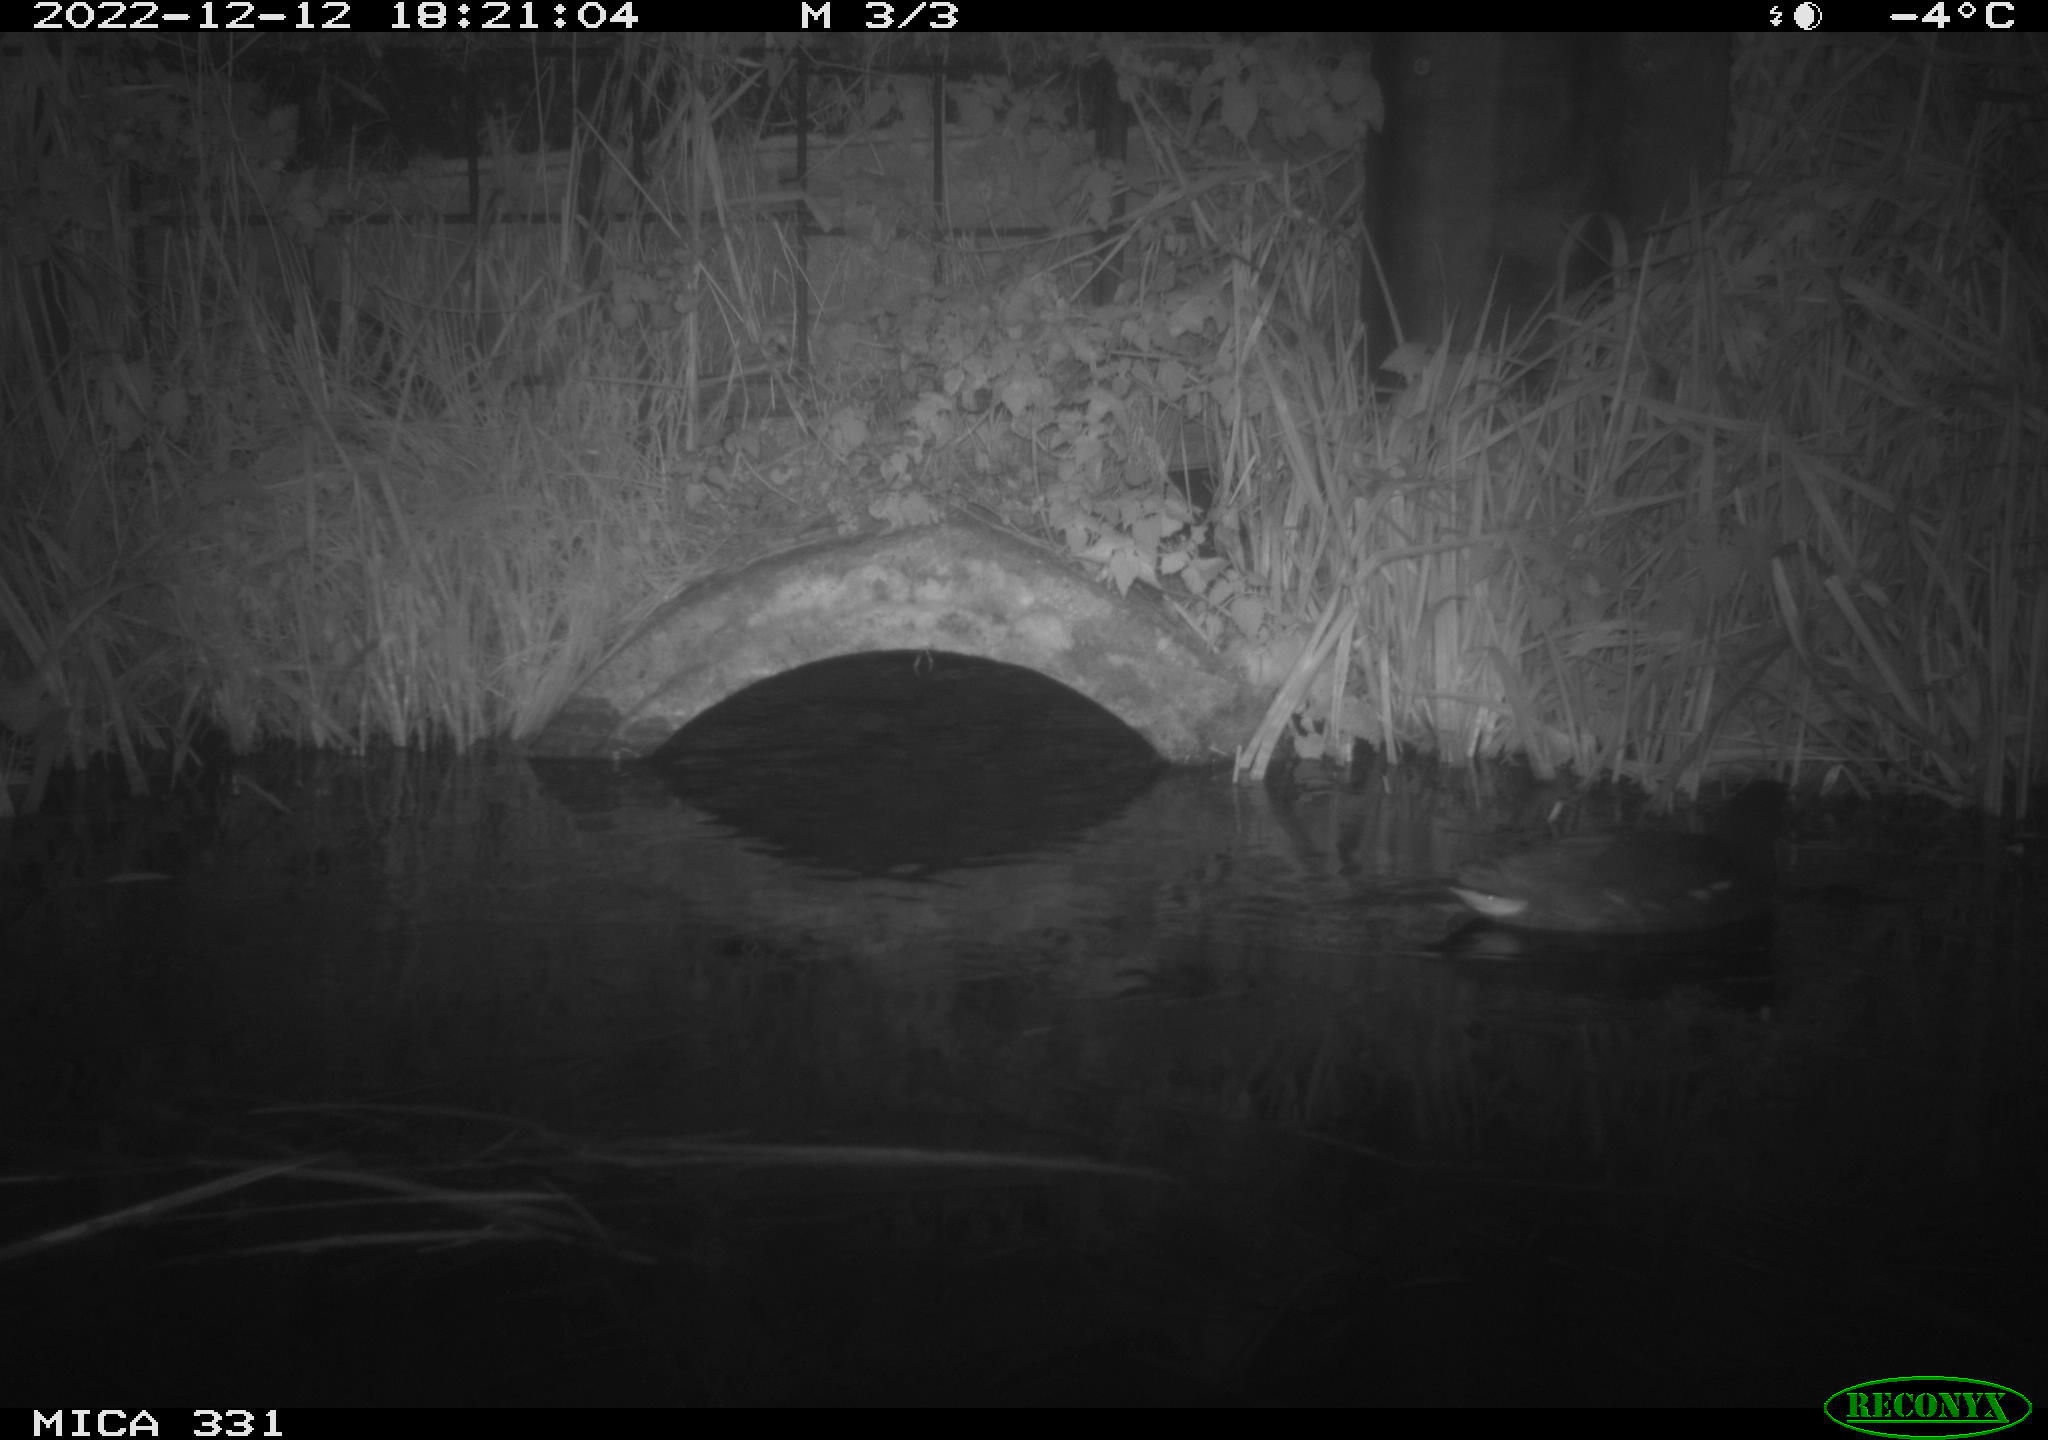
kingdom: Animalia
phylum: Chordata
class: Aves
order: Gruiformes
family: Rallidae
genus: Gallinula
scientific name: Gallinula chloropus
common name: Common moorhen
